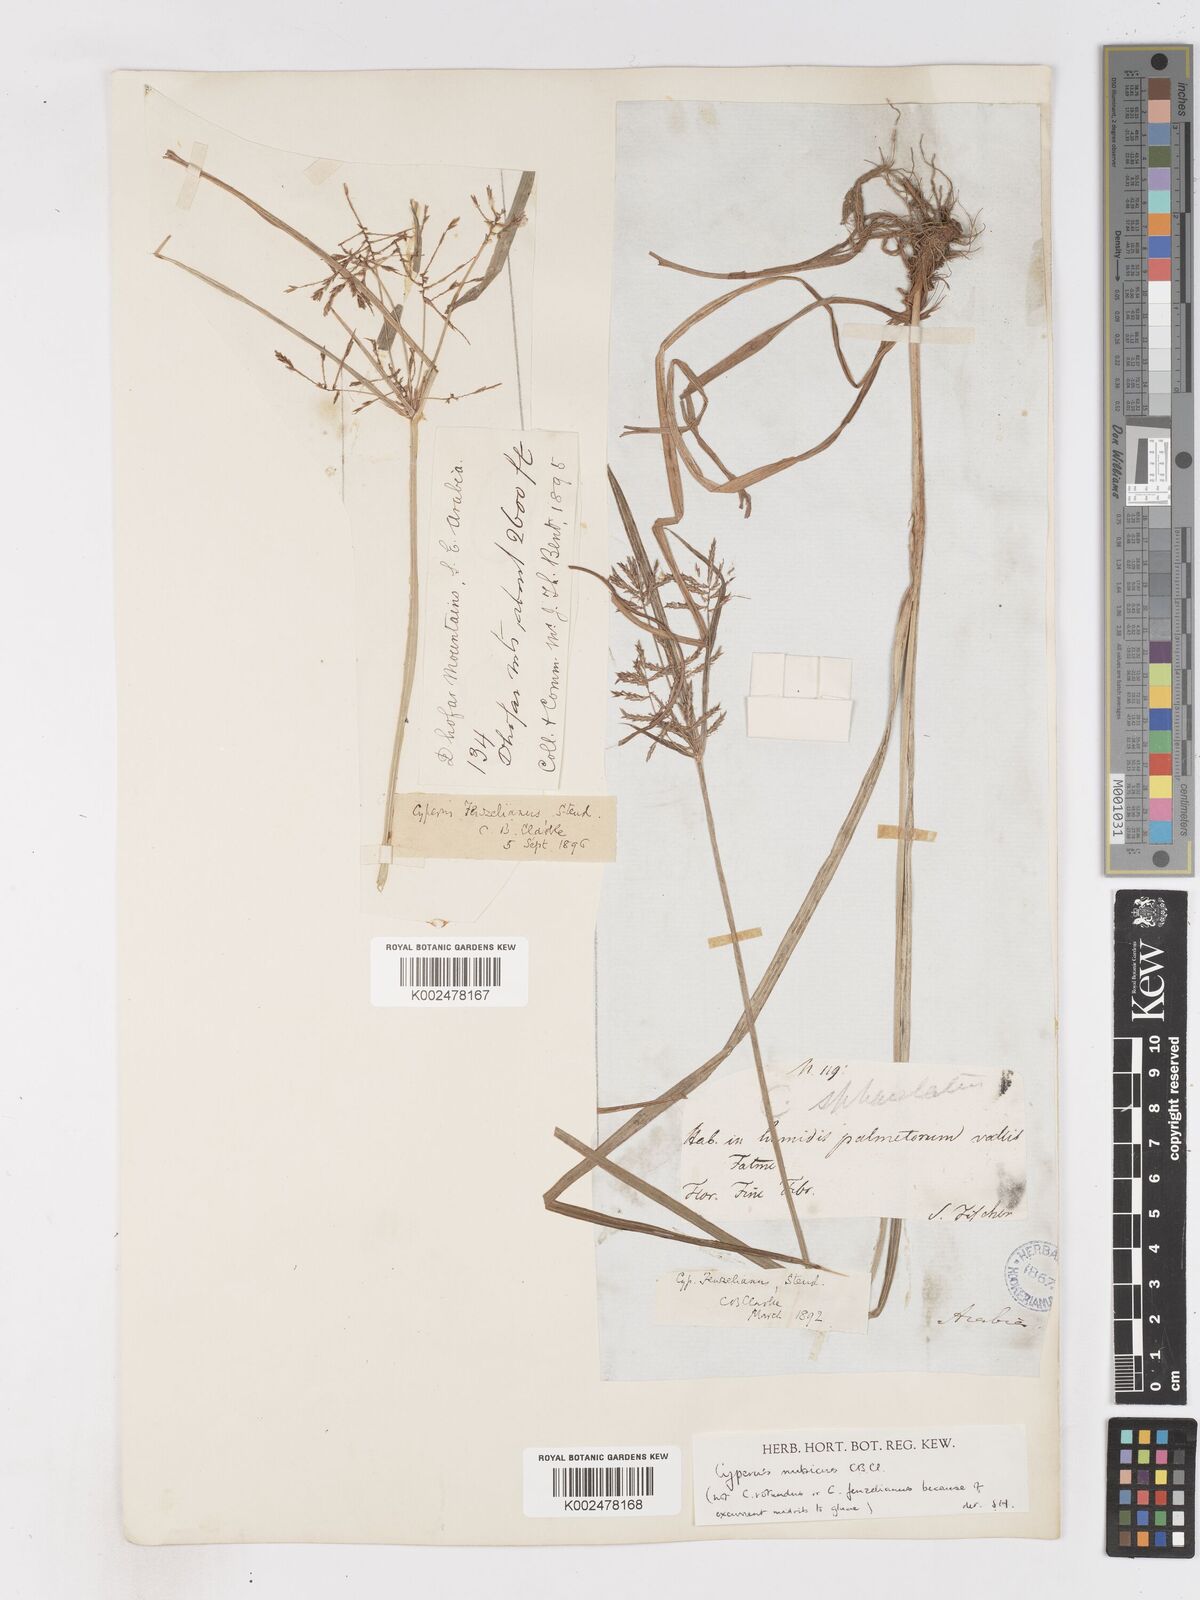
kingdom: Plantae
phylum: Tracheophyta
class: Liliopsida
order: Poales
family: Cyperaceae
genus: Cyperus
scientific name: Cyperus nubicus
